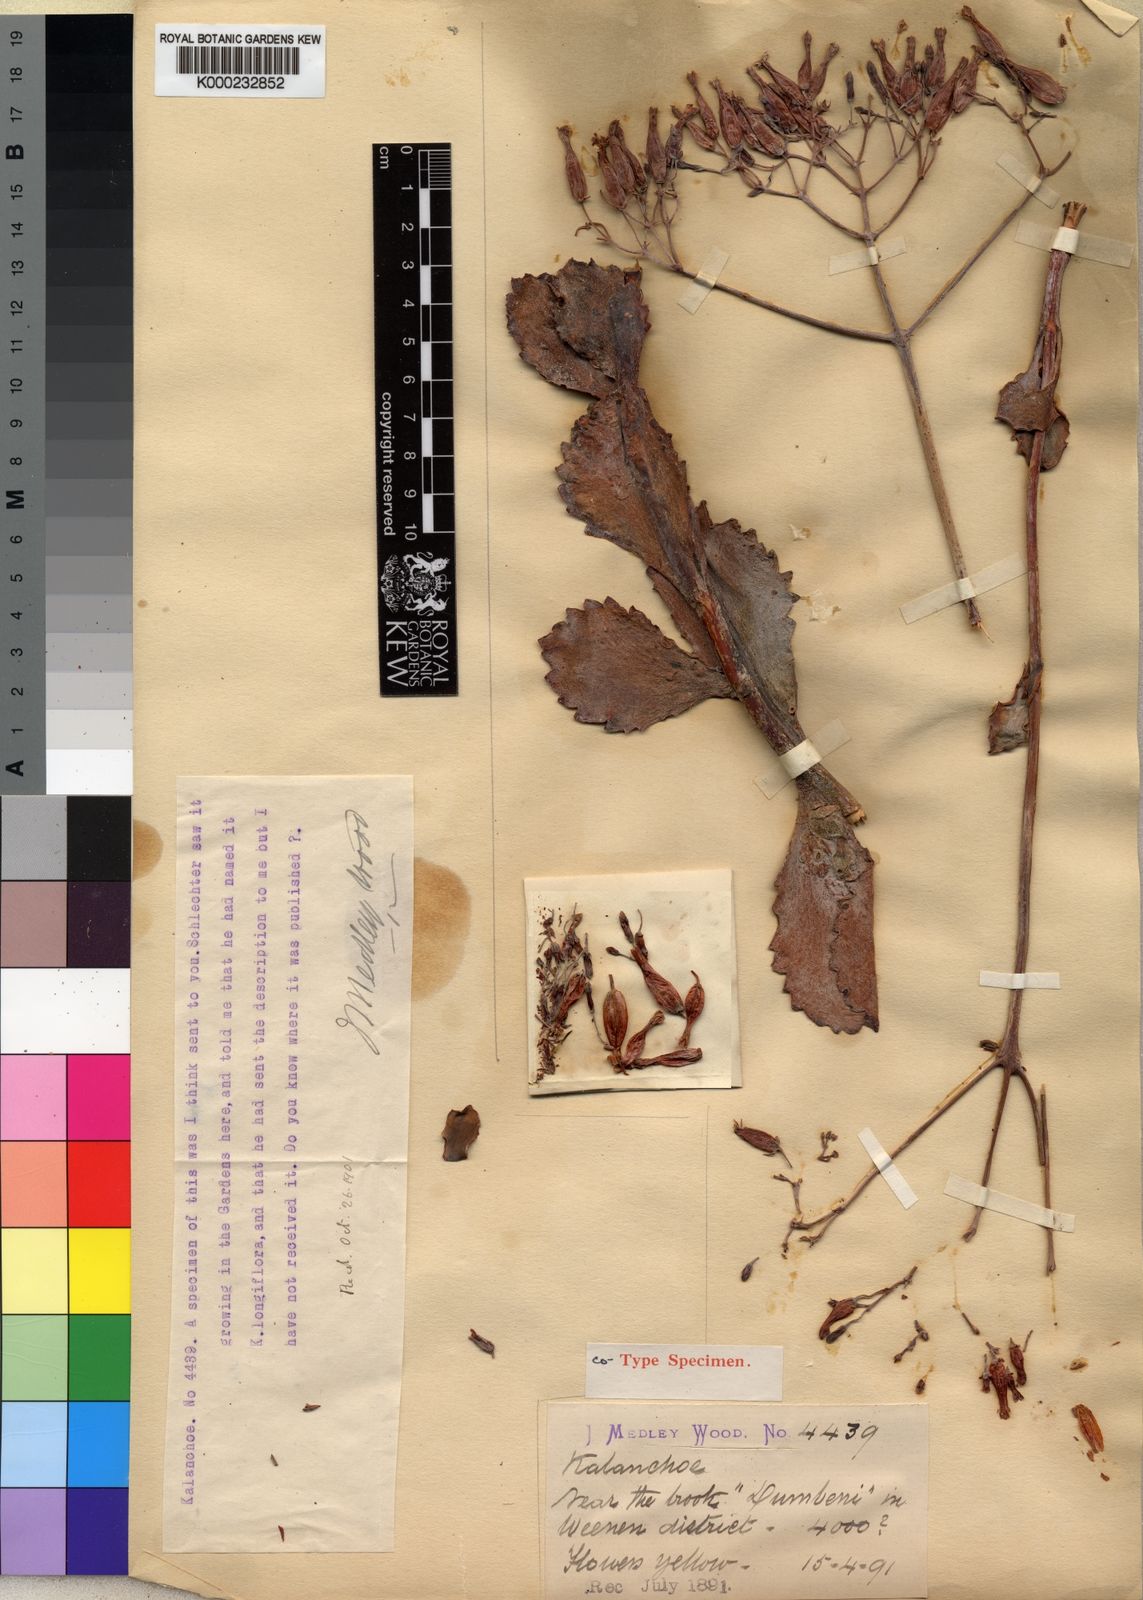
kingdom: Plantae
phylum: Tracheophyta
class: Magnoliopsida
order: Saxifragales
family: Crassulaceae
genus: Kalanchoe
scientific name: Kalanchoe
